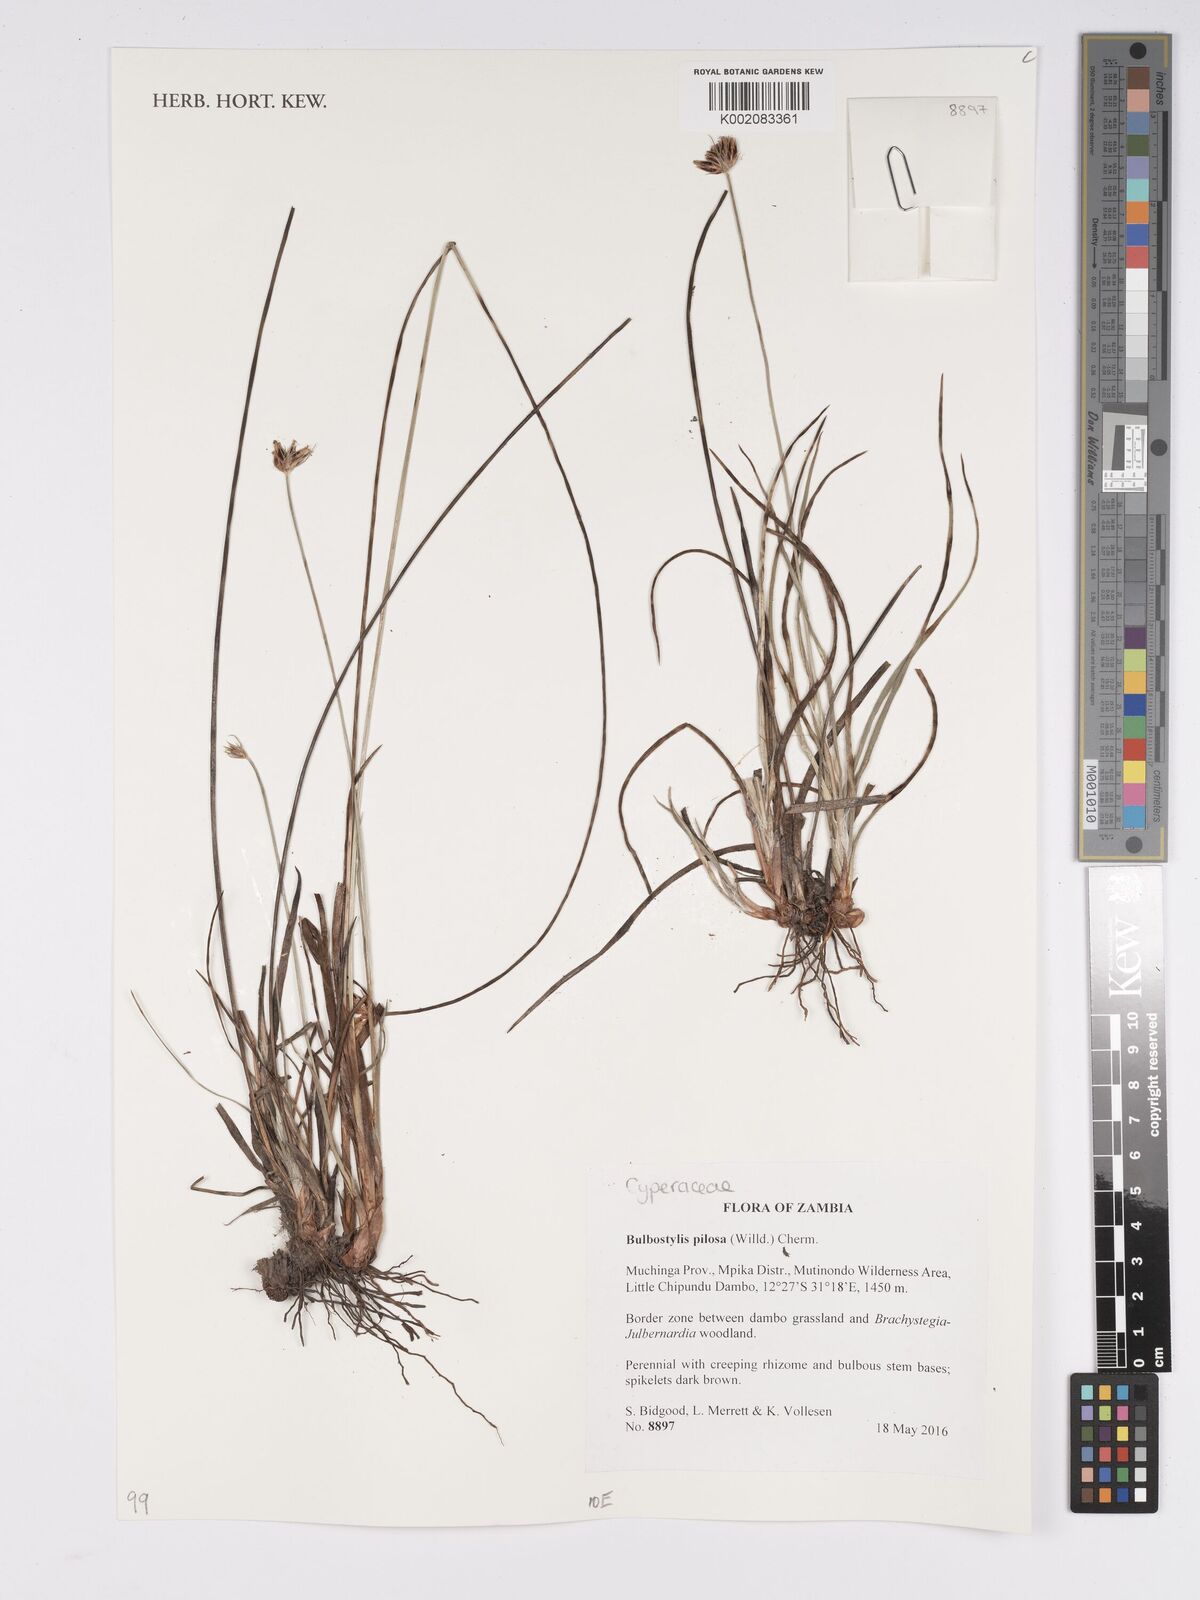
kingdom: Plantae
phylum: Tracheophyta
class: Liliopsida
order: Poales
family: Cyperaceae
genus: Bulbostylis
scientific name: Bulbostylis pilosa
